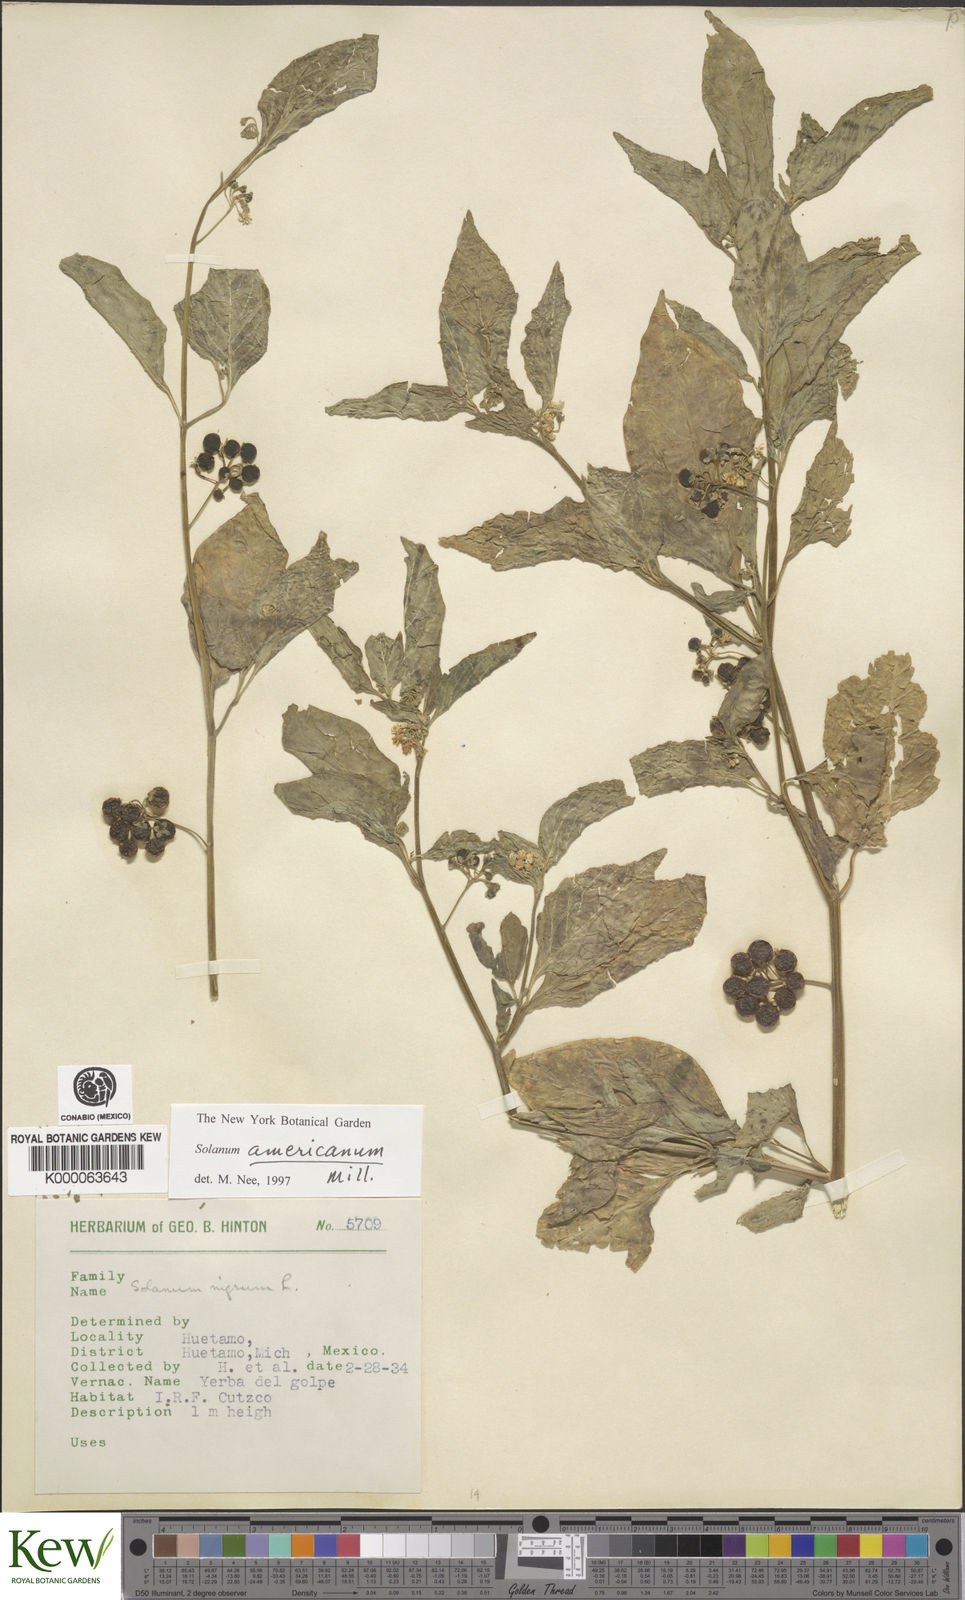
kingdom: Plantae
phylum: Tracheophyta
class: Magnoliopsida
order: Solanales
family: Solanaceae
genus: Solanum
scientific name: Solanum americanum
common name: American black nightshade
